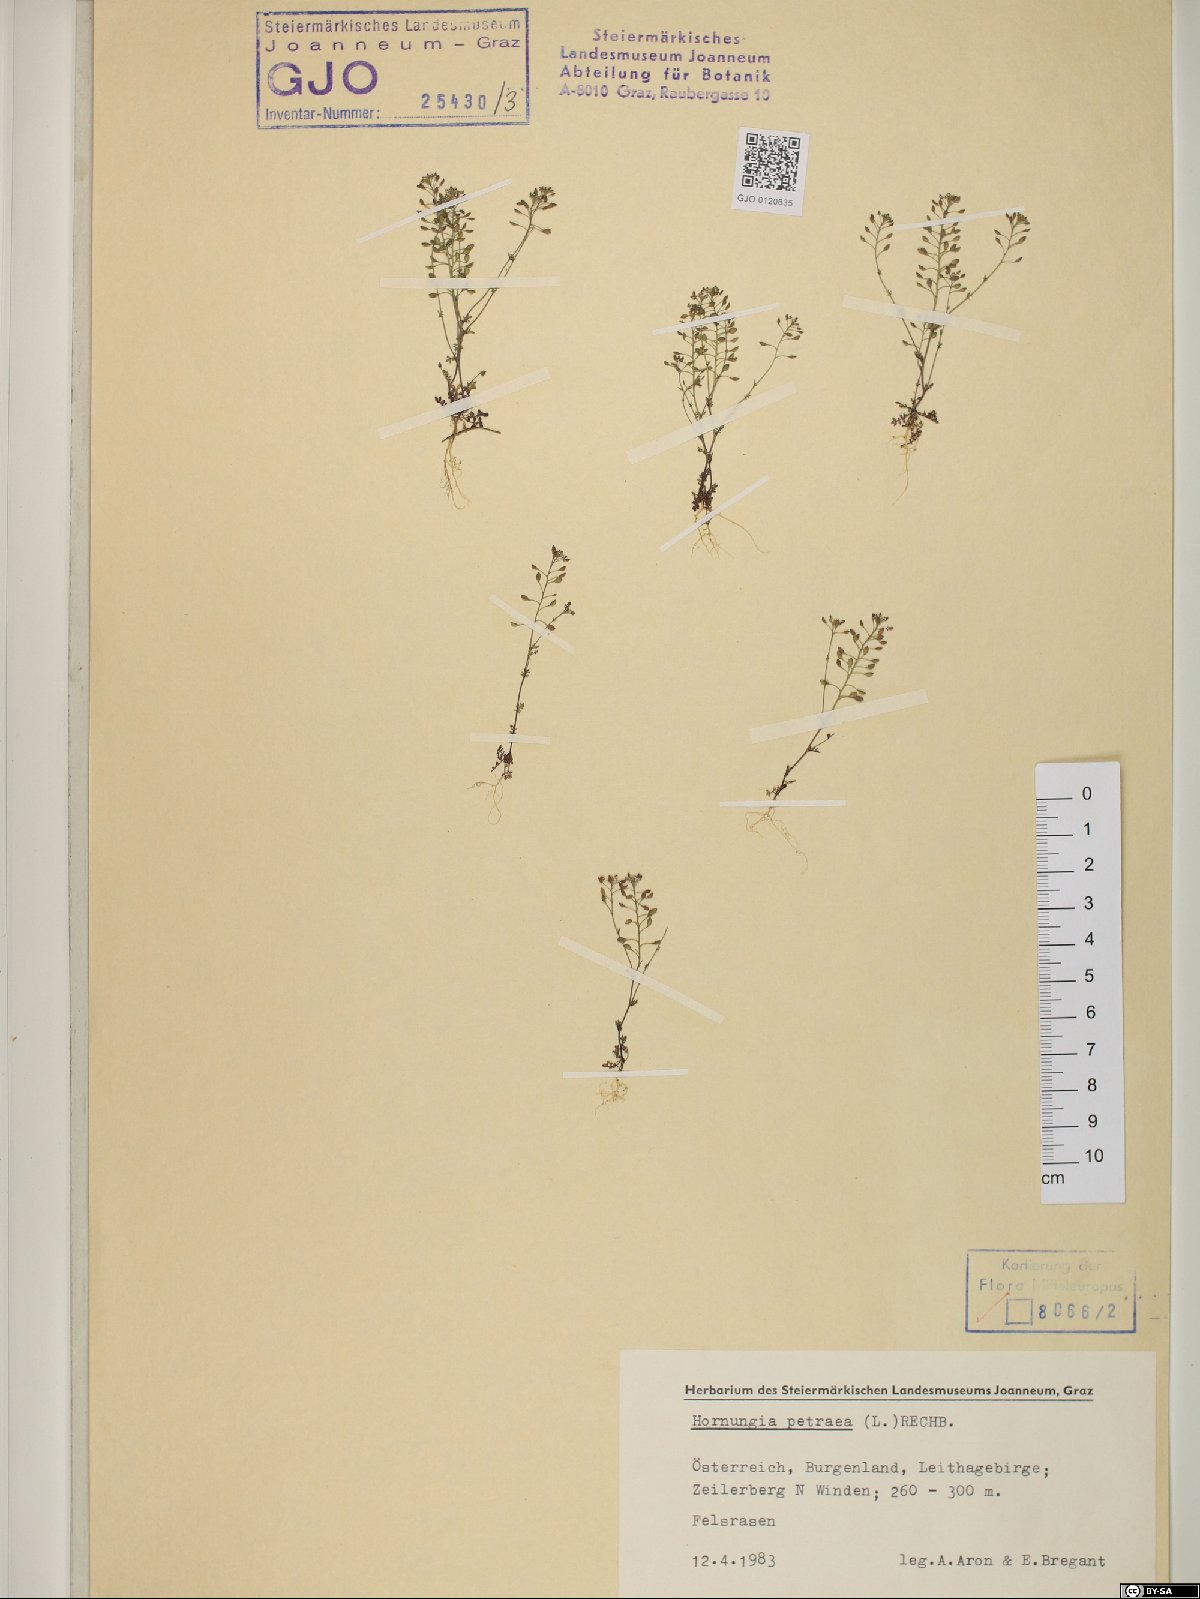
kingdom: Plantae
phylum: Tracheophyta
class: Magnoliopsida
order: Brassicales
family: Brassicaceae
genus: Hornungia
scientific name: Hornungia petraea
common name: Hutchinsia
